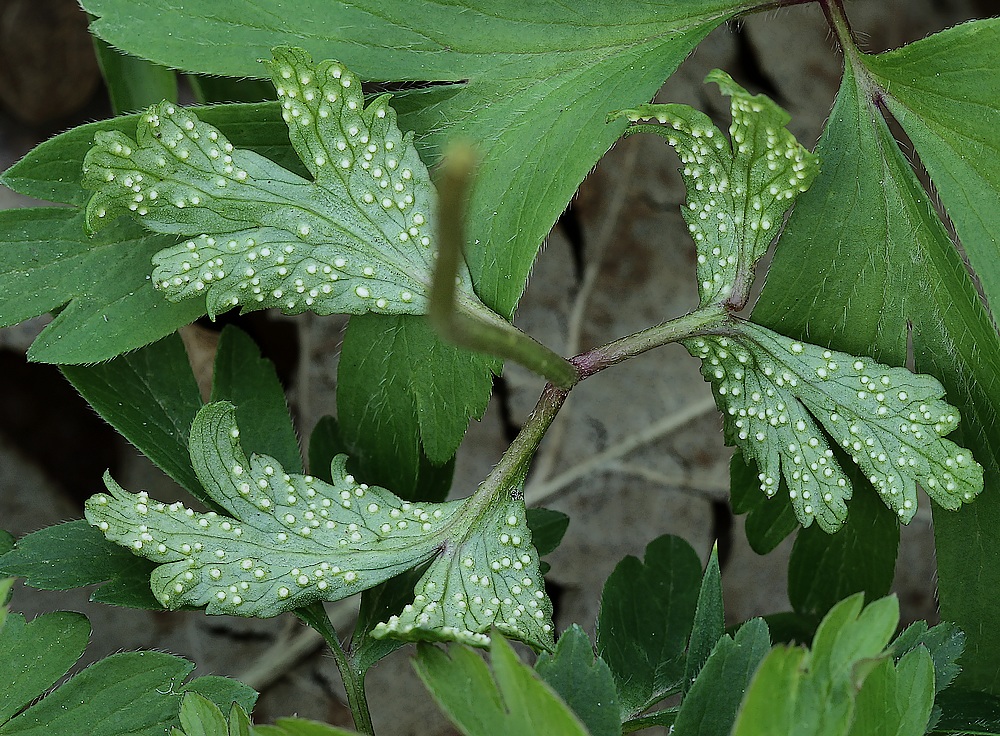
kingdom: Fungi
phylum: Basidiomycota
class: Pucciniomycetes
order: Pucciniales
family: Ochropsoraceae
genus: Ochropsora
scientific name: Ochropsora ariae
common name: anemone-okkerpletrust
